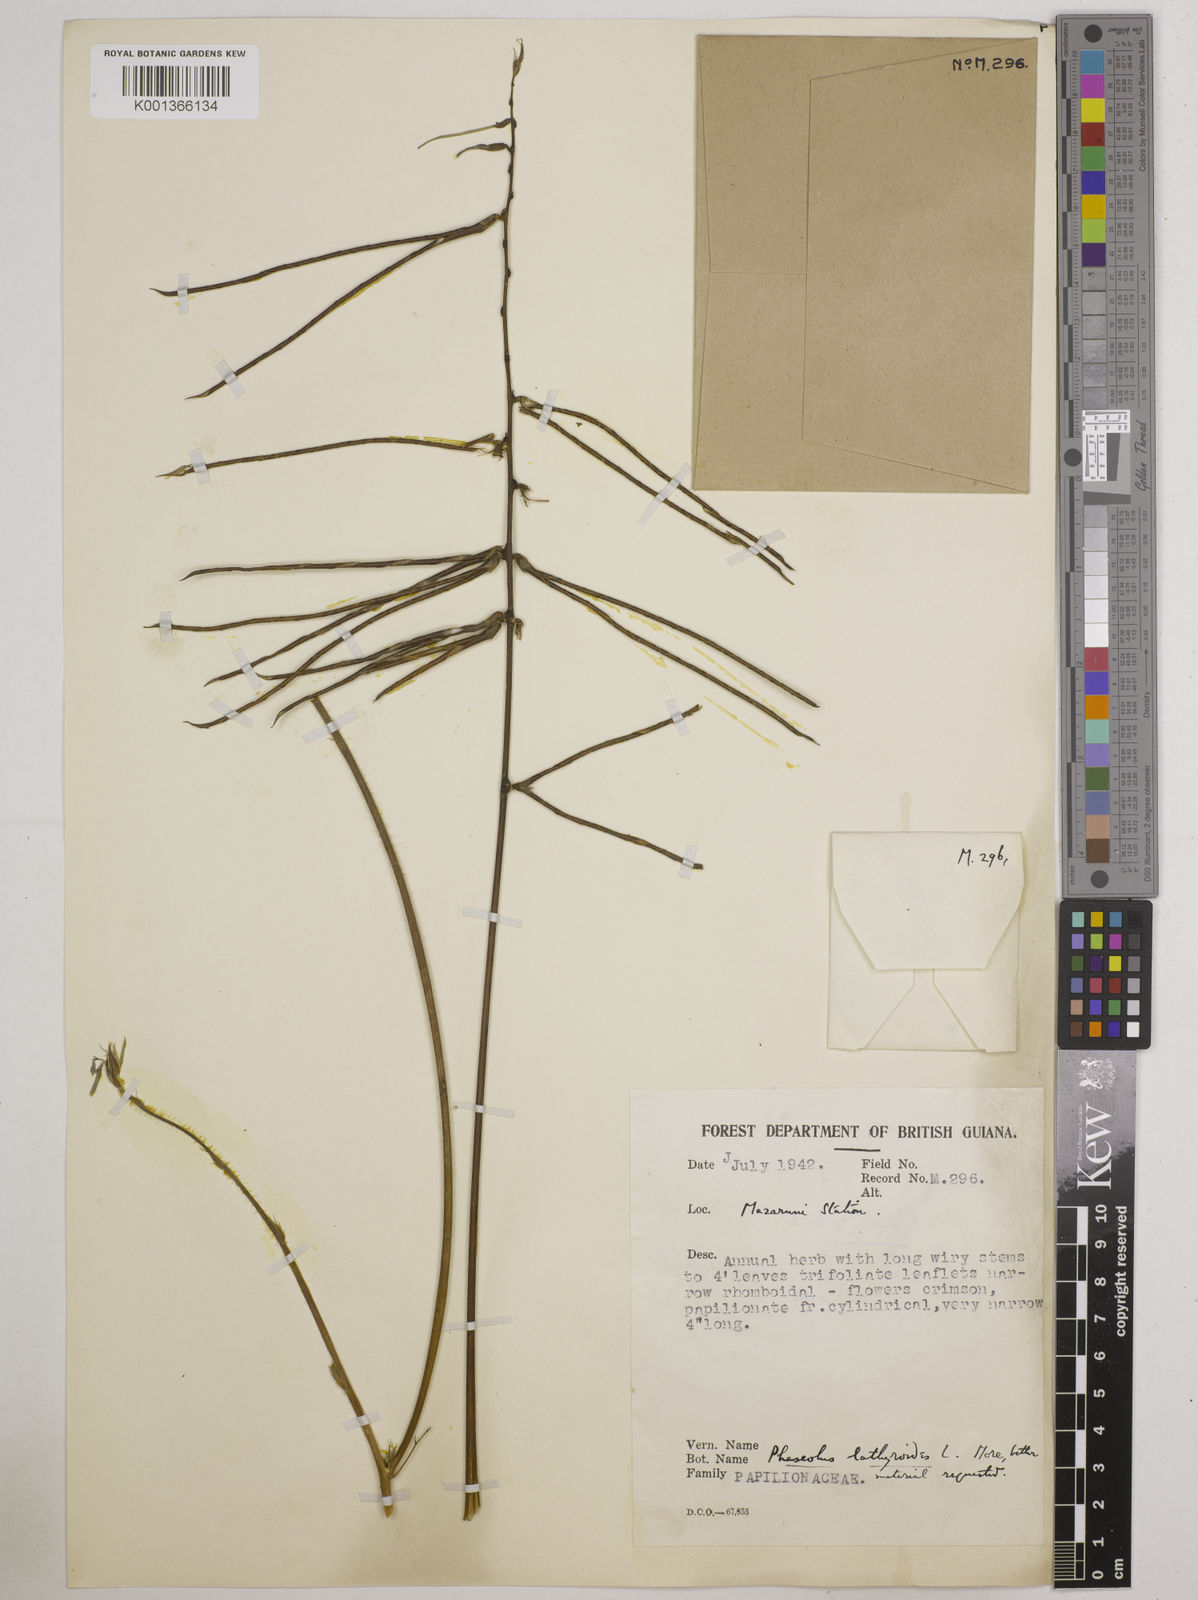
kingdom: Plantae
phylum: Tracheophyta
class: Magnoliopsida
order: Fabales
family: Fabaceae
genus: Macroptilium
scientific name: Macroptilium lathyroides
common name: Wild bushbean
